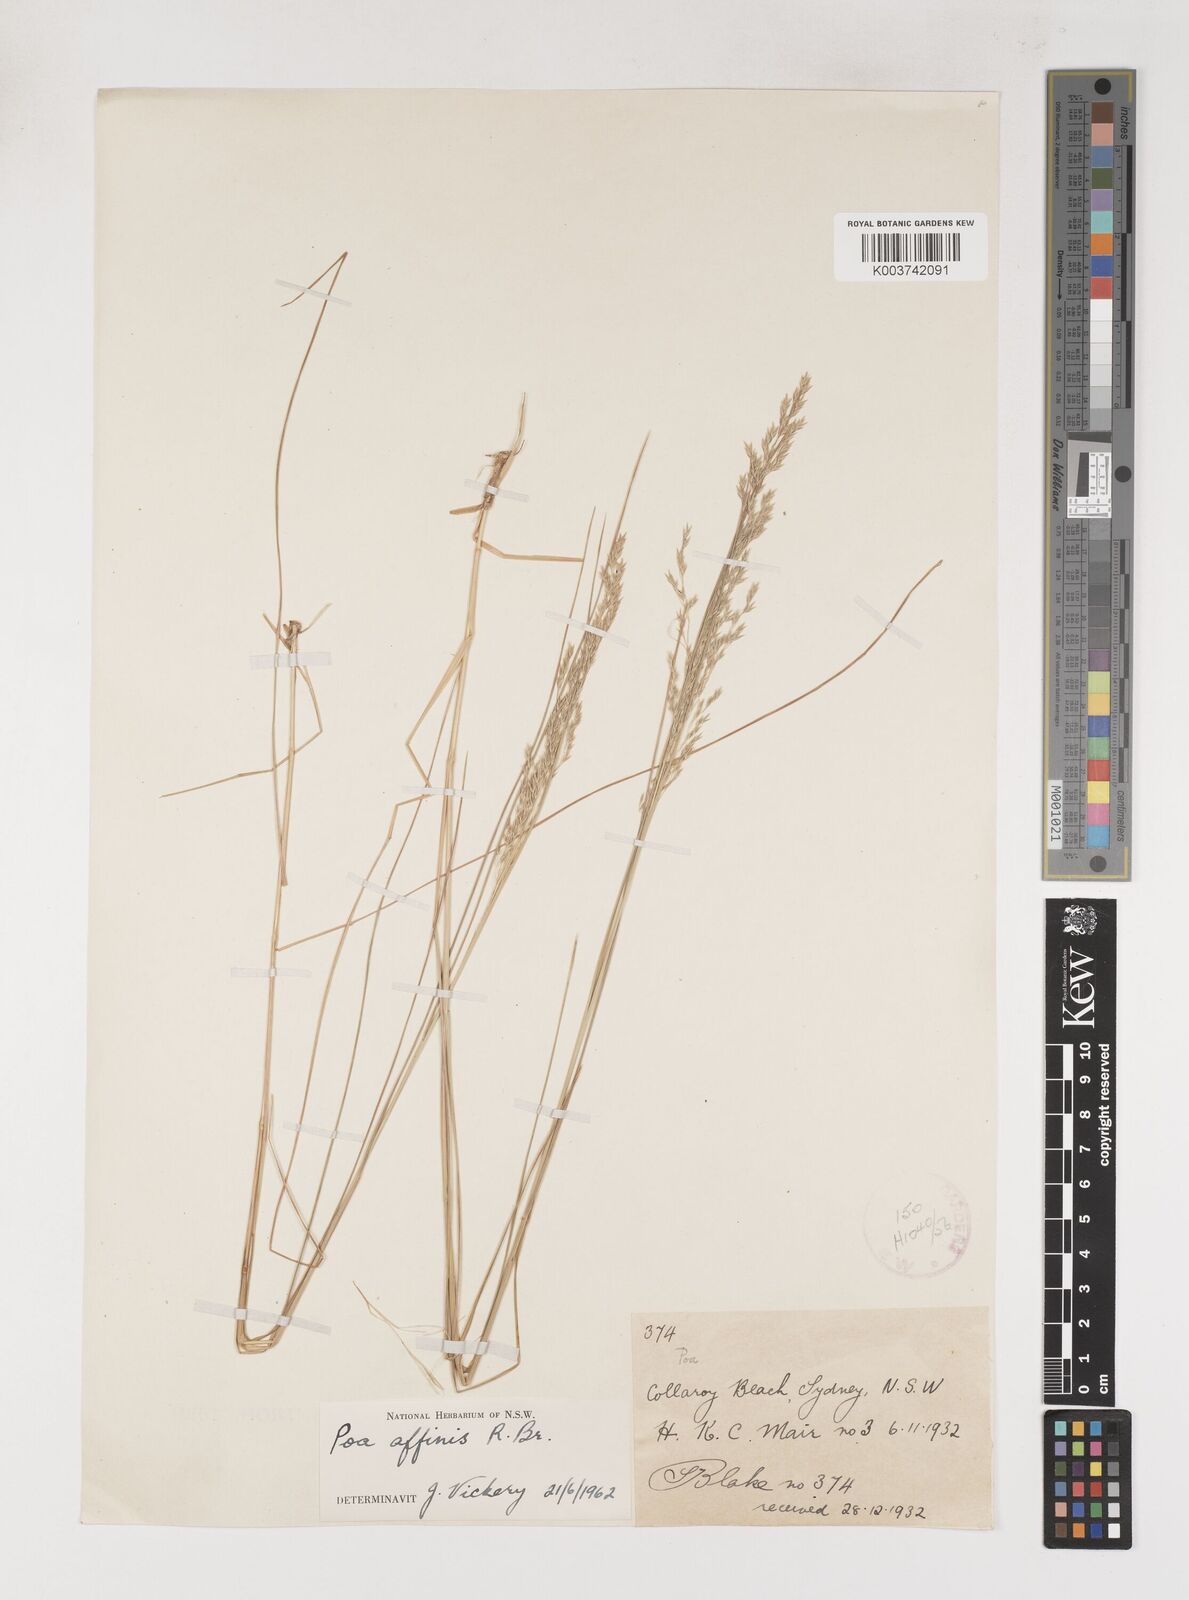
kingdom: Plantae
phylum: Tracheophyta
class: Liliopsida
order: Poales
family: Poaceae
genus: Poa
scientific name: Poa affinis
